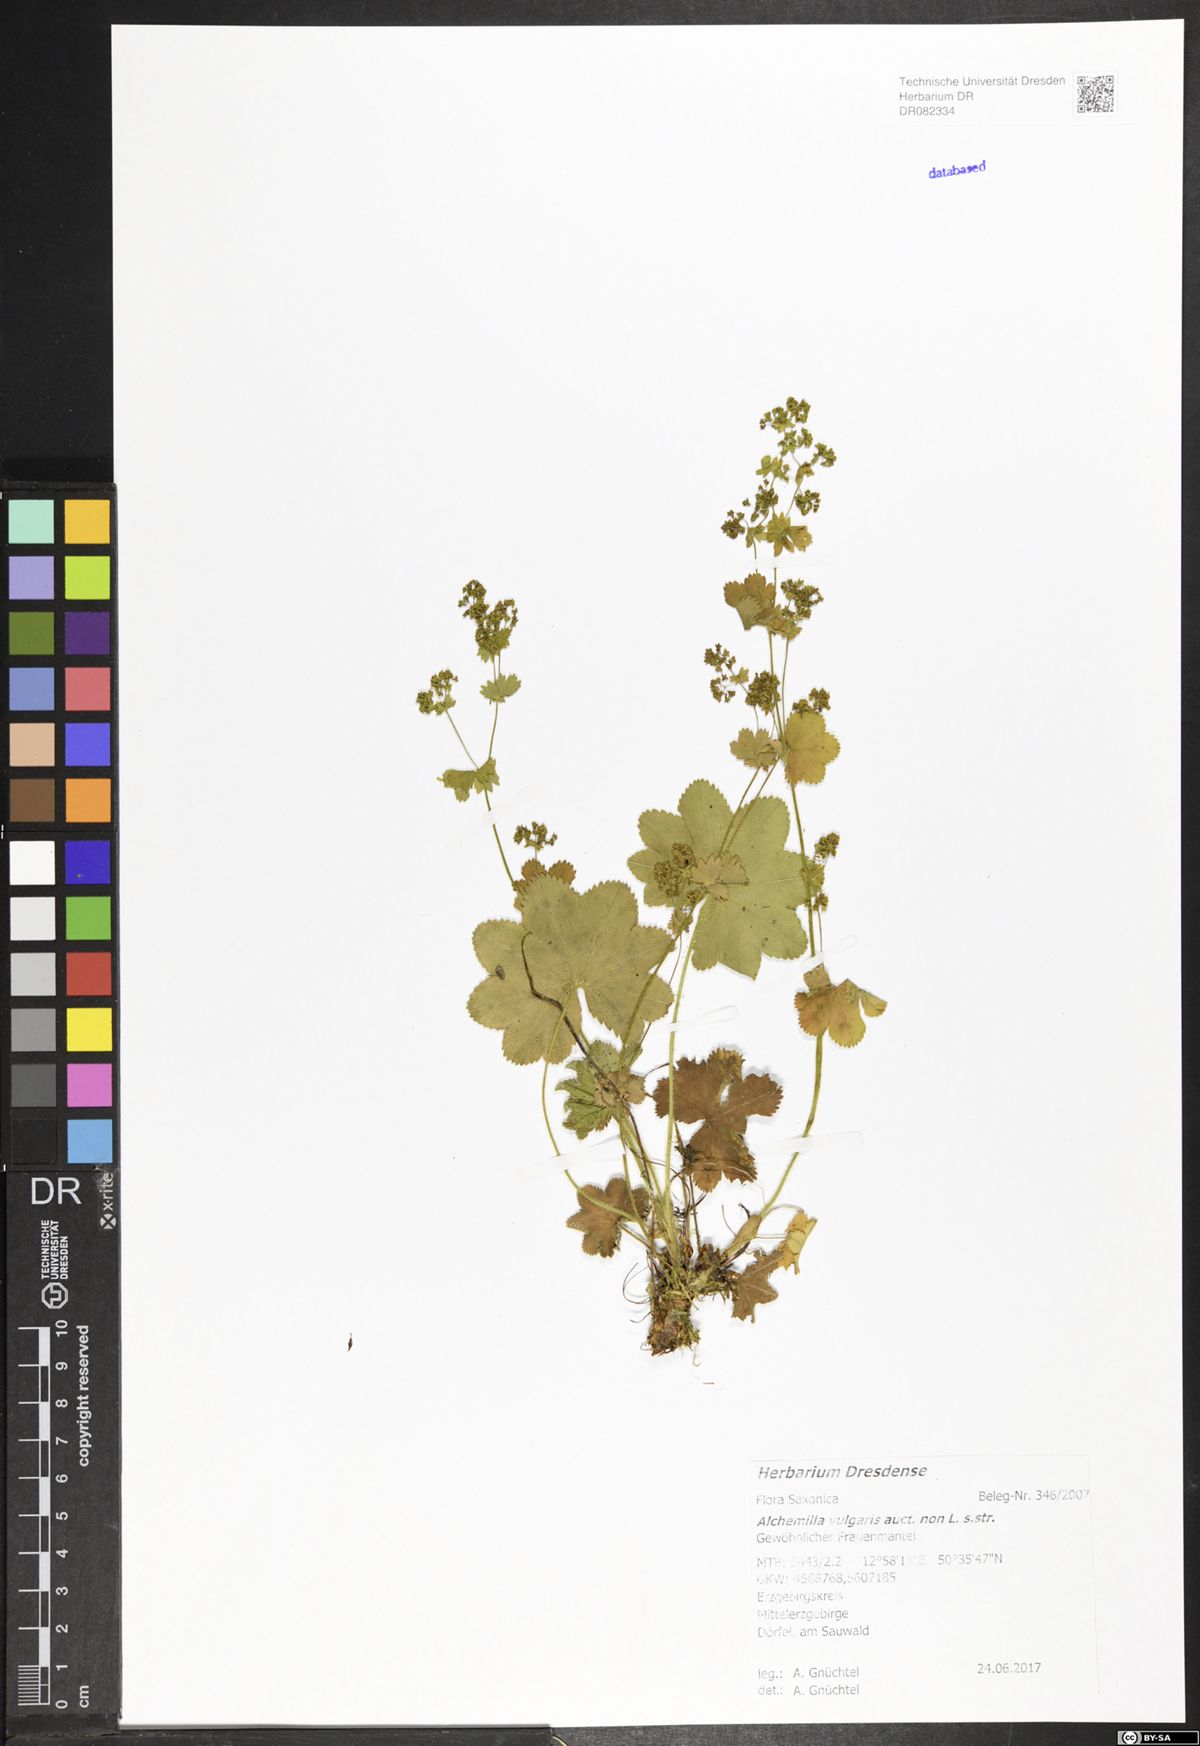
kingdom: Plantae
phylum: Tracheophyta
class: Magnoliopsida
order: Rosales
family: Rosaceae
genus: Alchemilla
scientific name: Alchemilla vulgaris
